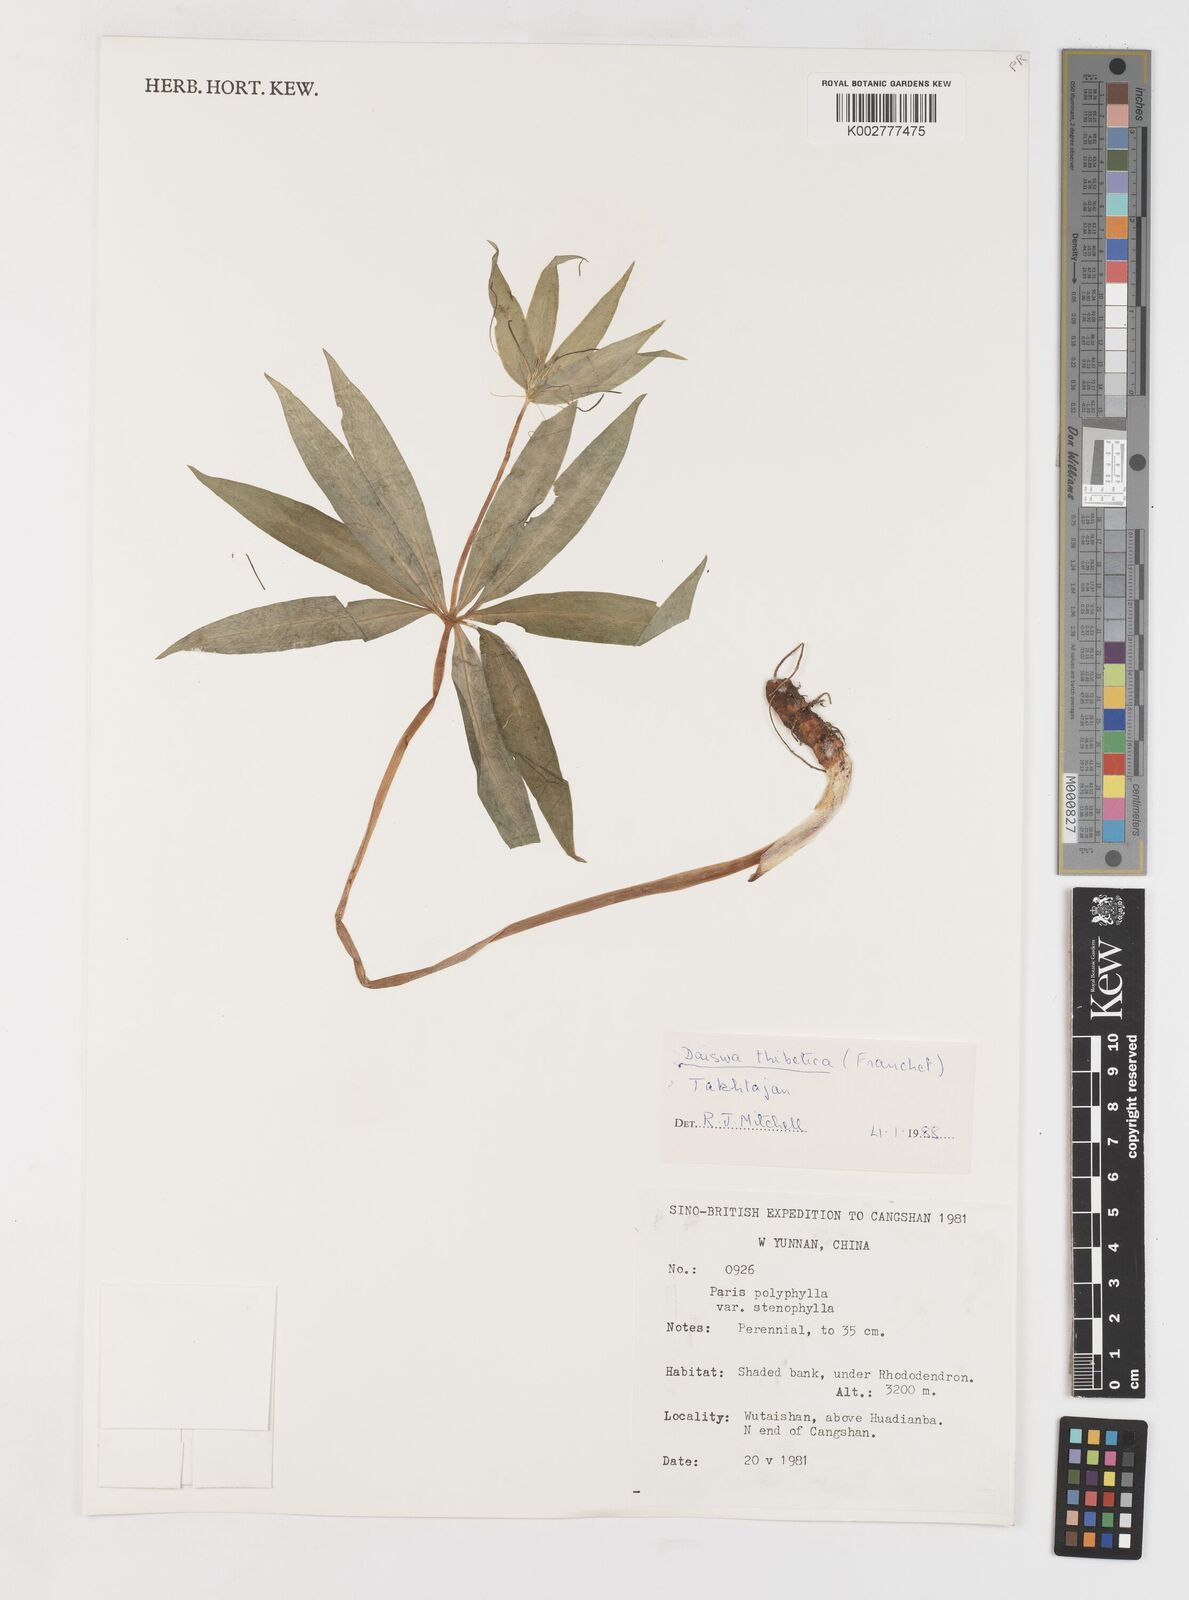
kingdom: Plantae
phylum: Tracheophyta
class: Liliopsida
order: Liliales
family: Melanthiaceae
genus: Paris
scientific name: Paris thibetica
